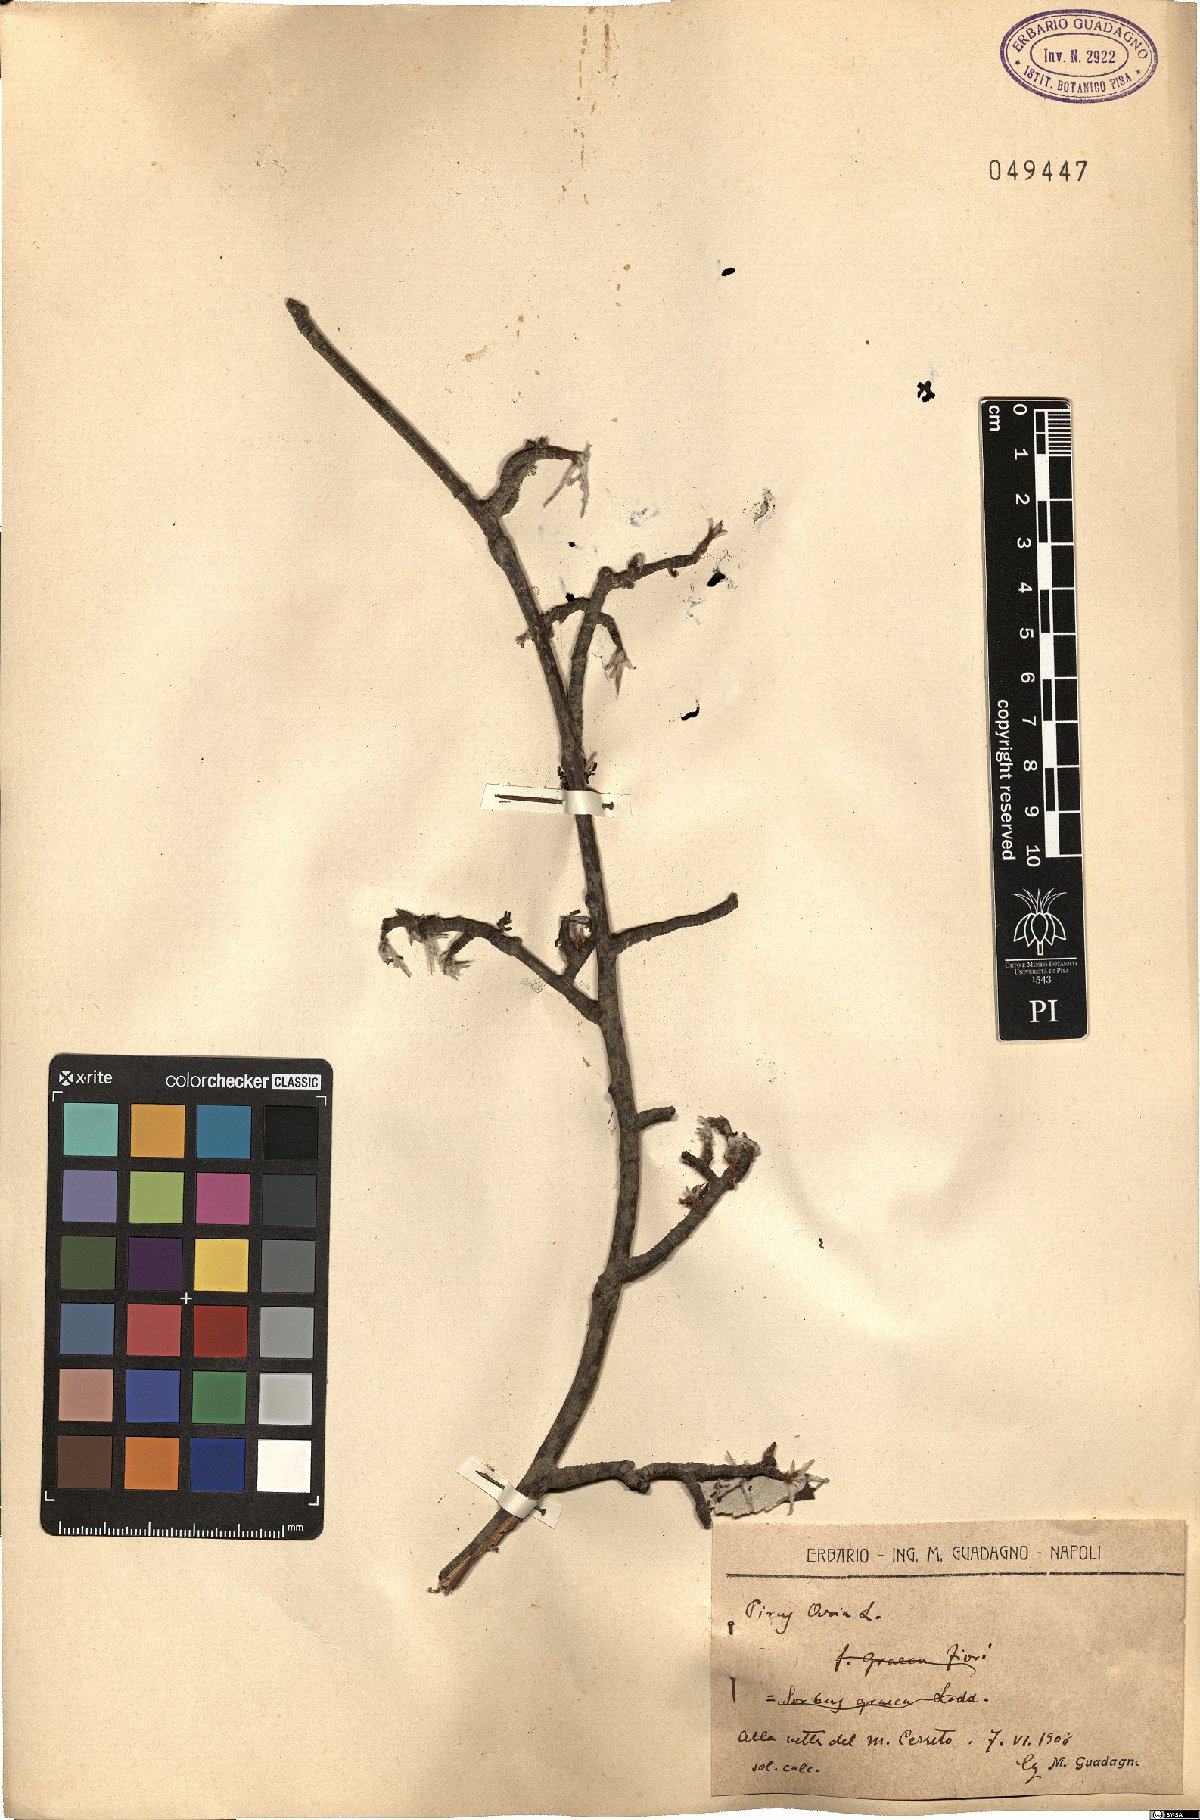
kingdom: Plantae
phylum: Tracheophyta
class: Magnoliopsida
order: Rosales
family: Rosaceae
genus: Aria
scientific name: Aria edulis
